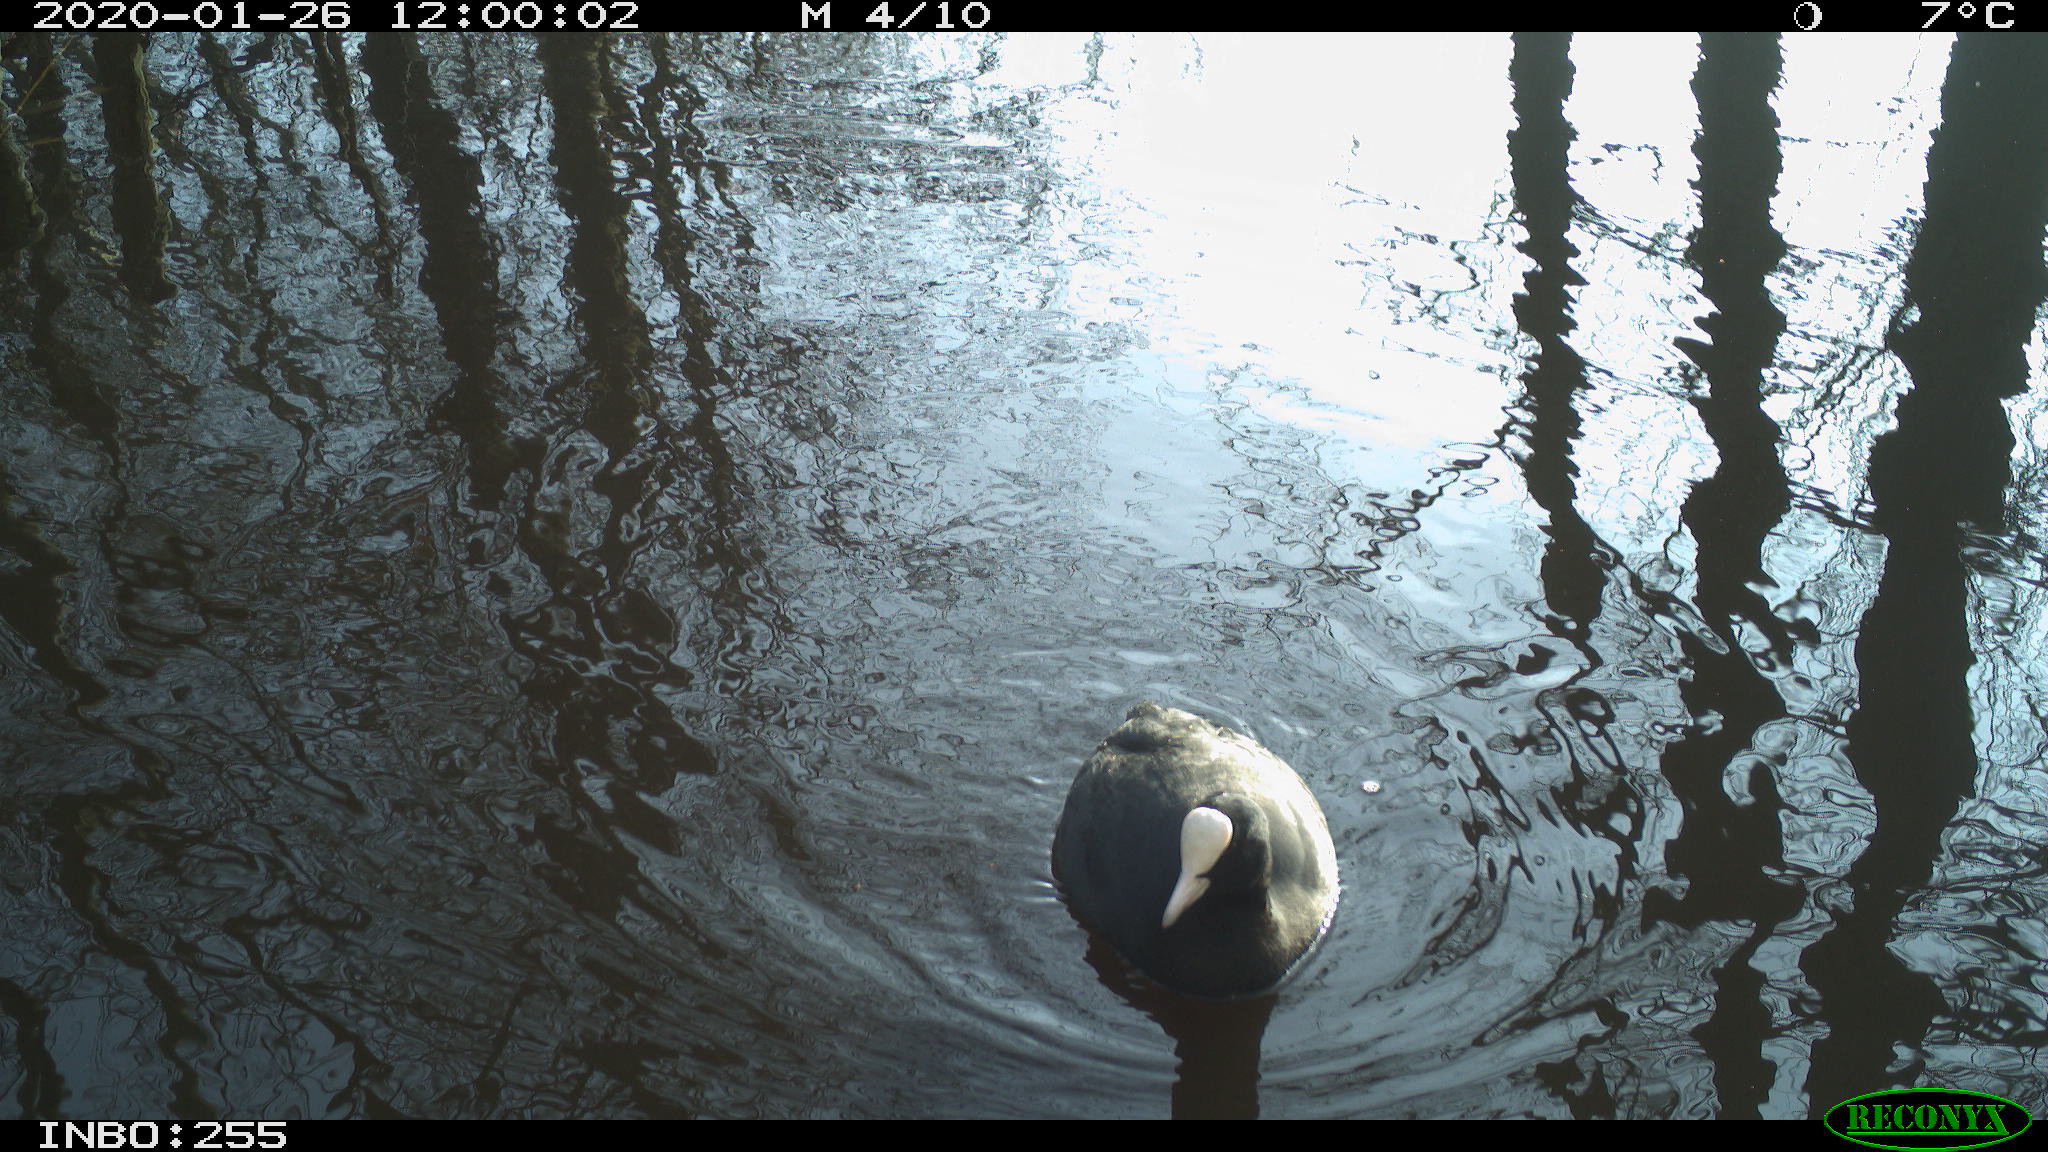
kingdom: Animalia
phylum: Chordata
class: Aves
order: Gruiformes
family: Rallidae
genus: Fulica
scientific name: Fulica atra
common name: Eurasian coot
